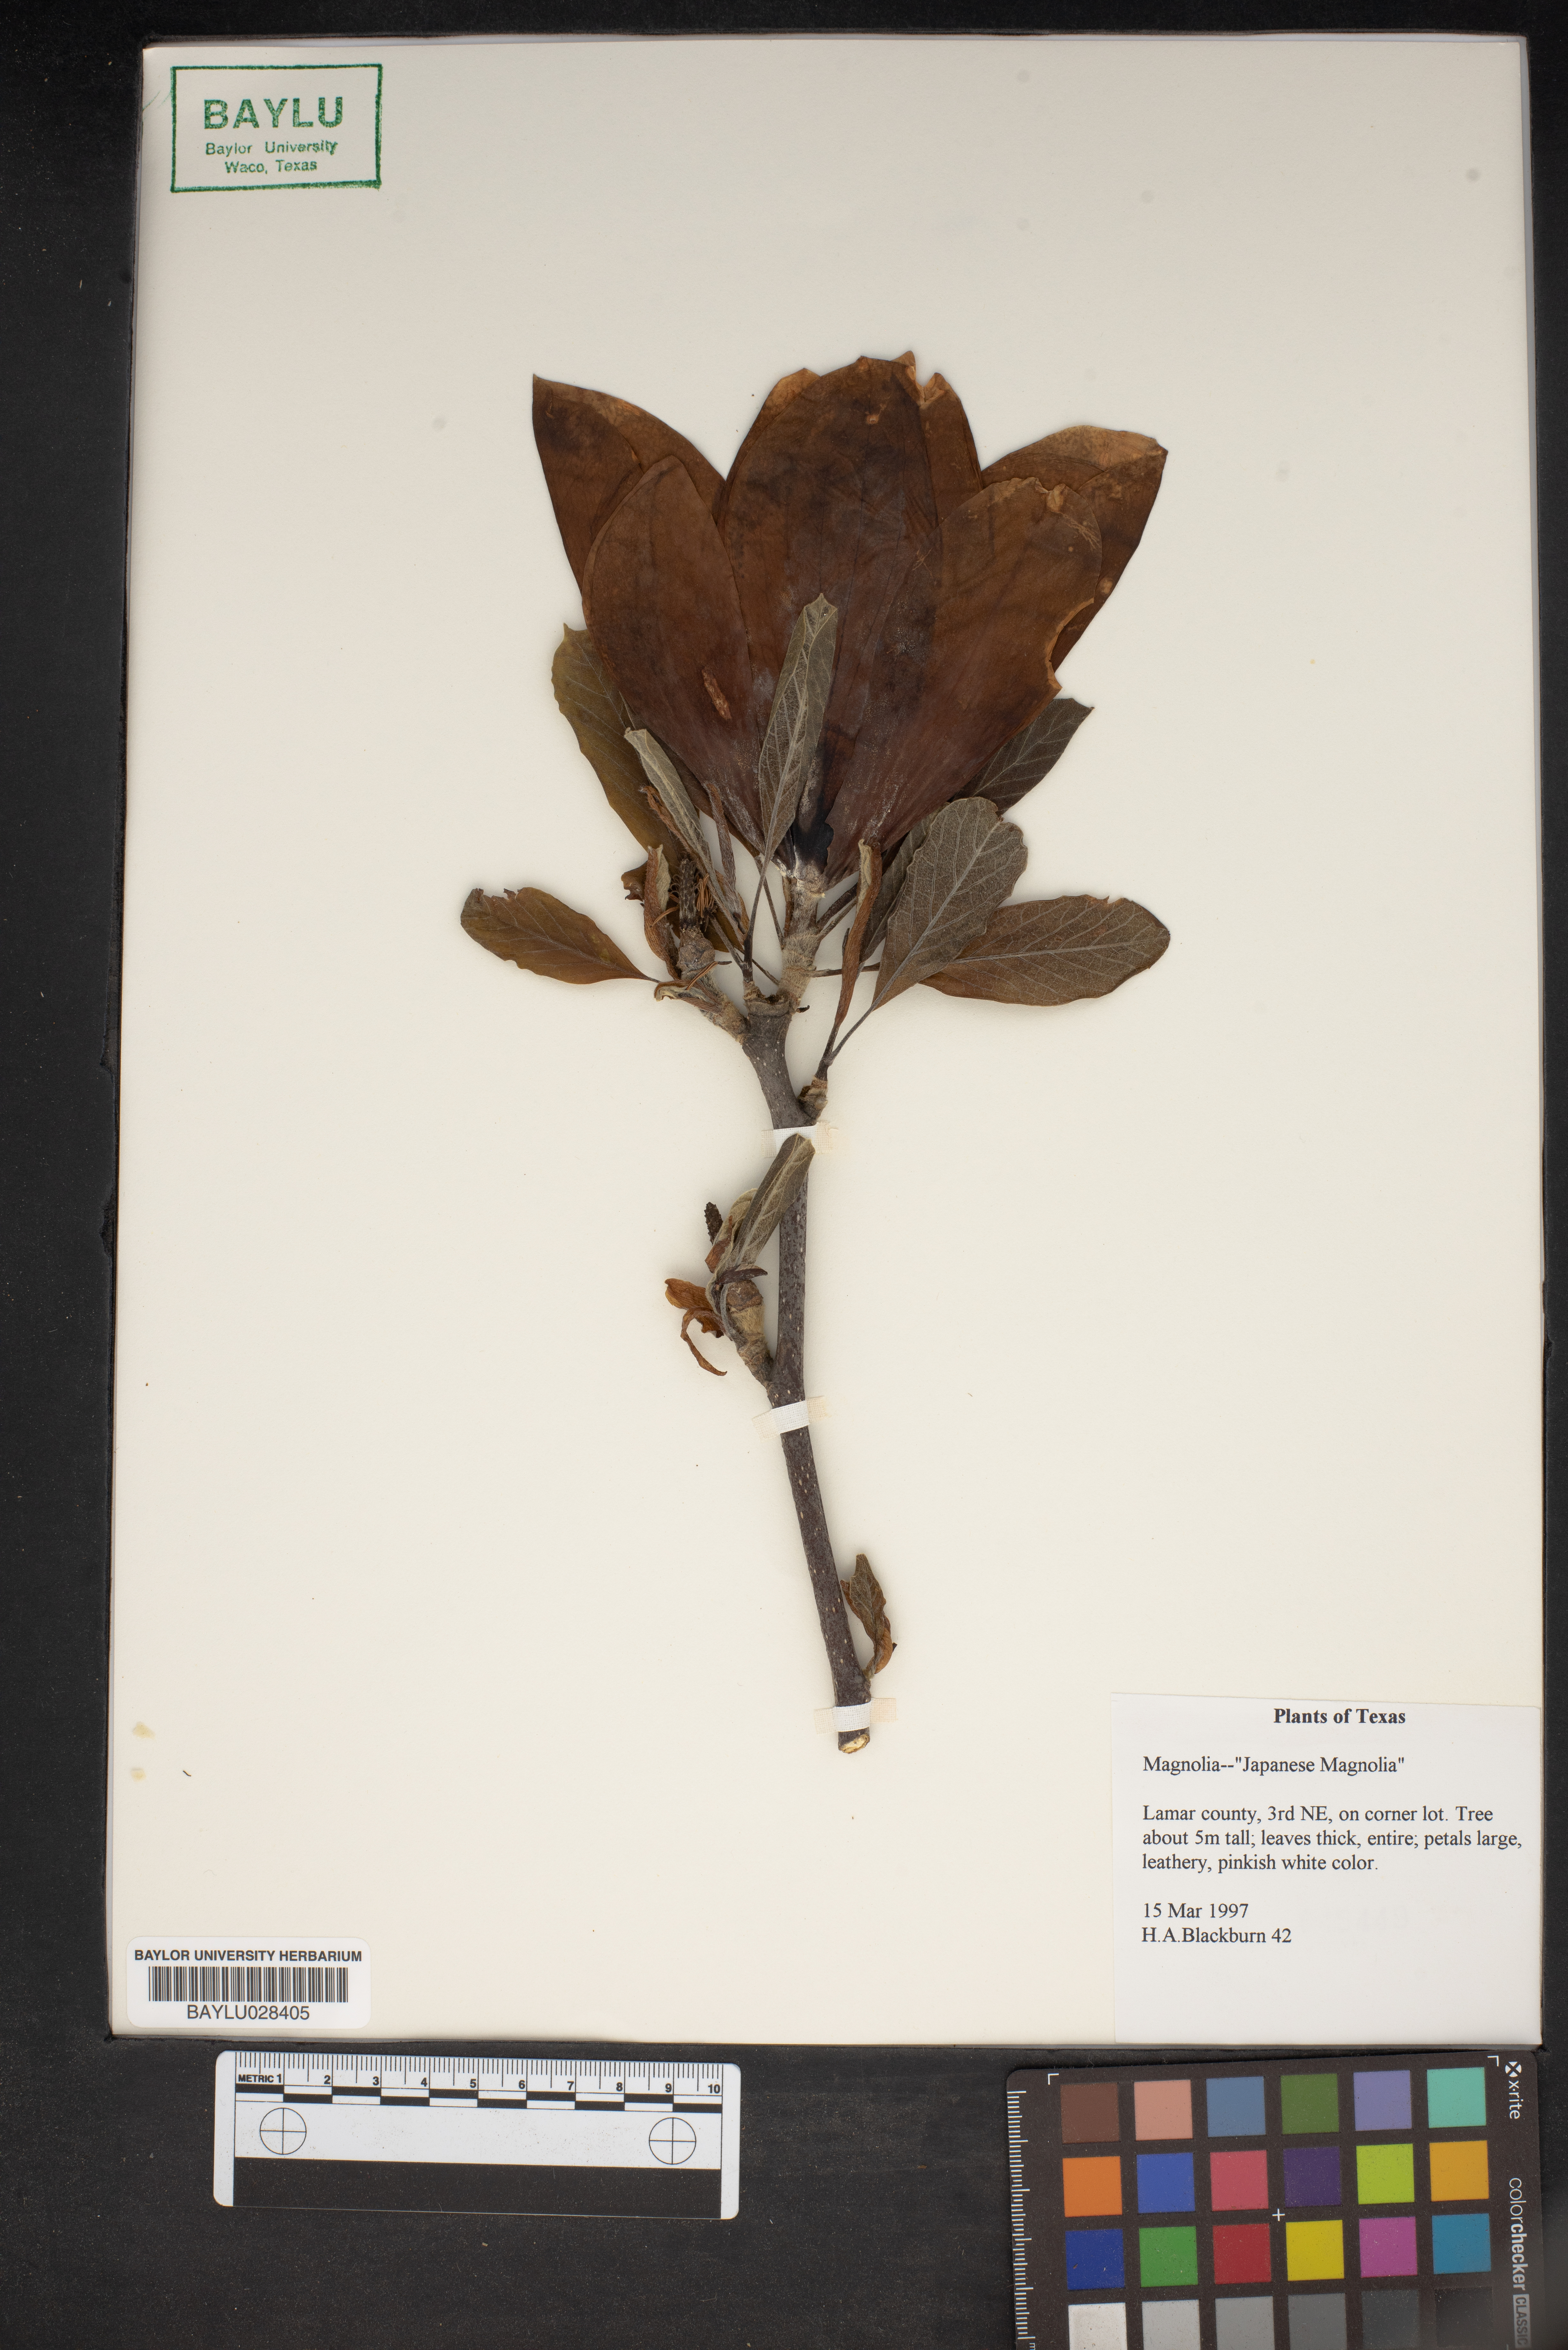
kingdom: Plantae
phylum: Tracheophyta
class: Magnoliopsida
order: Magnoliales
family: Magnoliaceae
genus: Magnolia
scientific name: Magnolia
